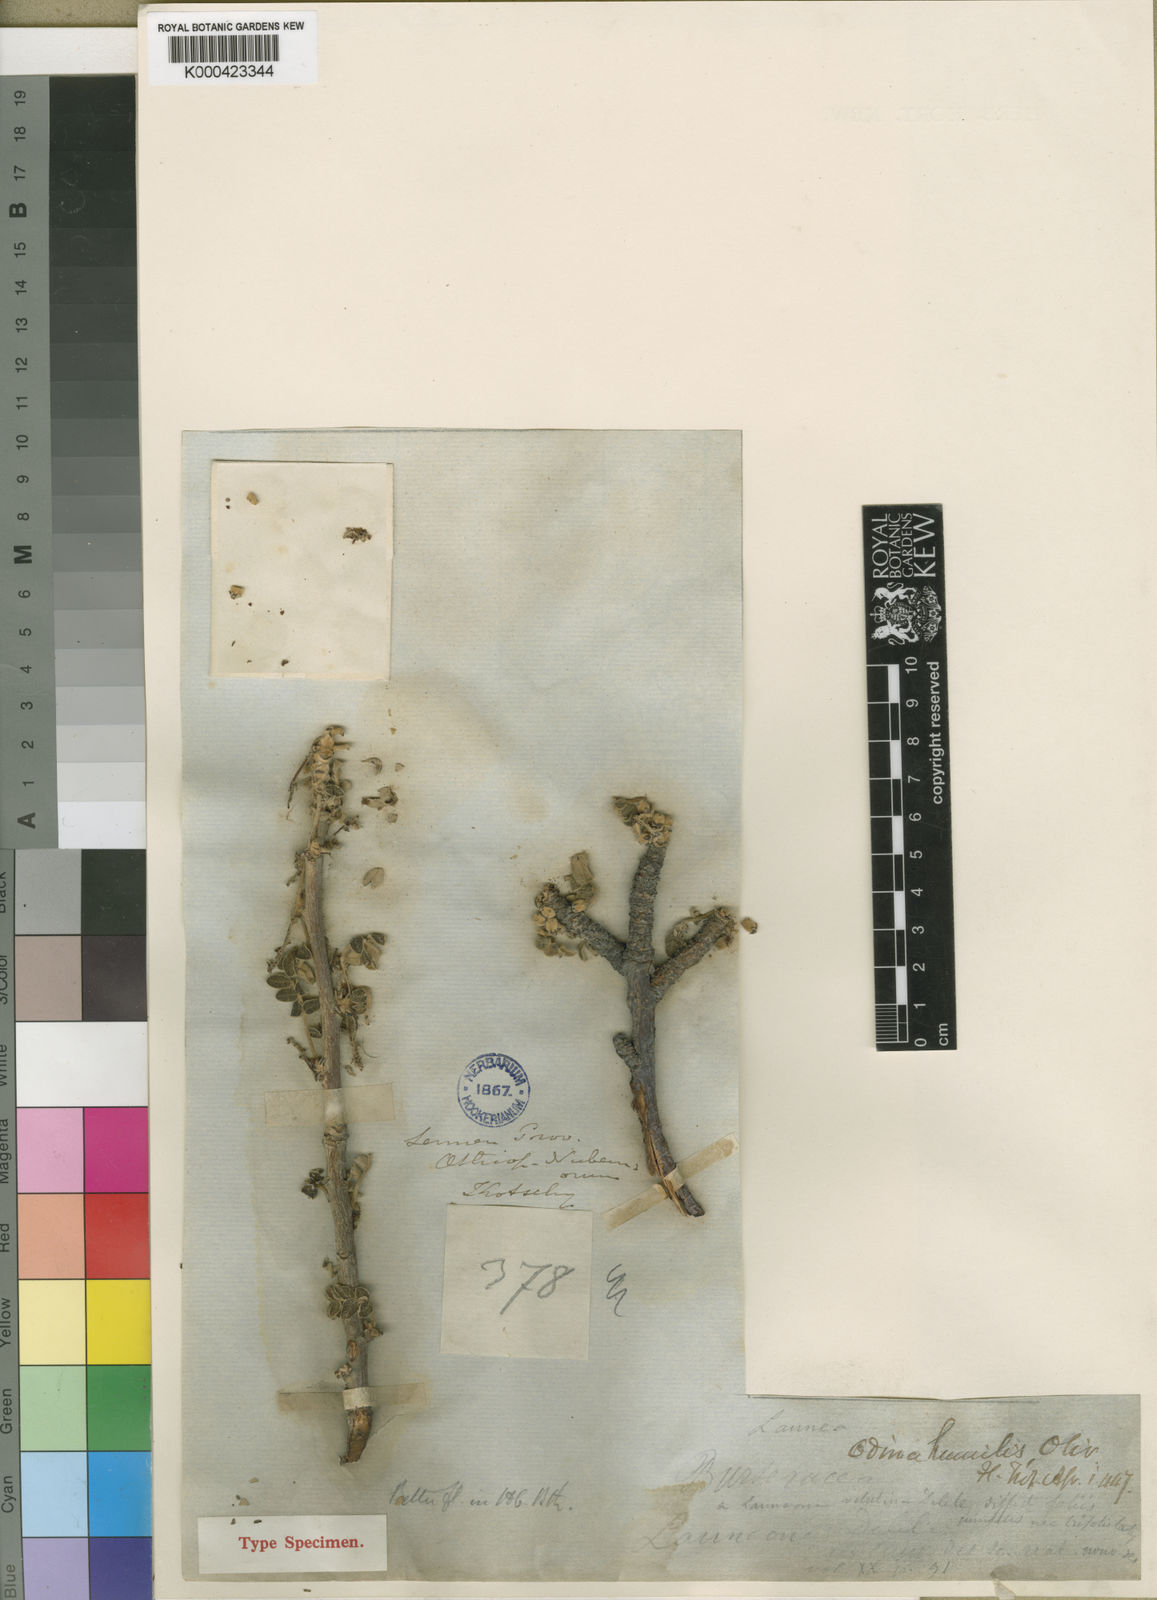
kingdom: Plantae
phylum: Tracheophyta
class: Magnoliopsida
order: Sapindales
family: Anacardiaceae
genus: Lannea
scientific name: Lannea humilis
